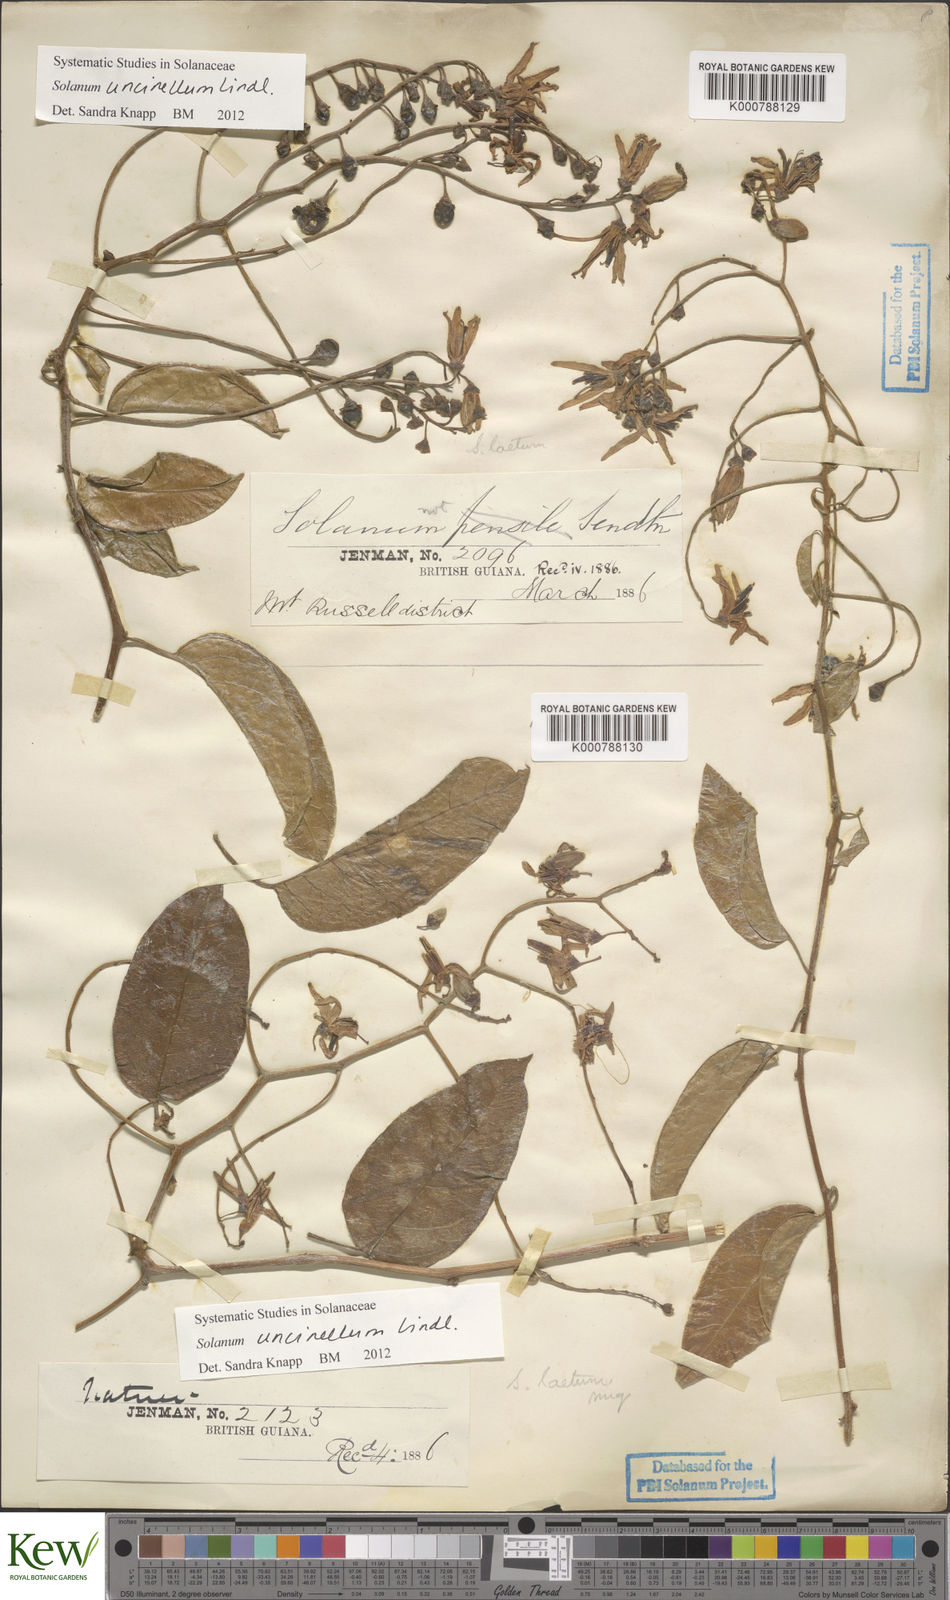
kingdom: Plantae
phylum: Tracheophyta
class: Magnoliopsida
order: Solanales
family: Solanaceae
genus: Solanum
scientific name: Solanum uncinellum
